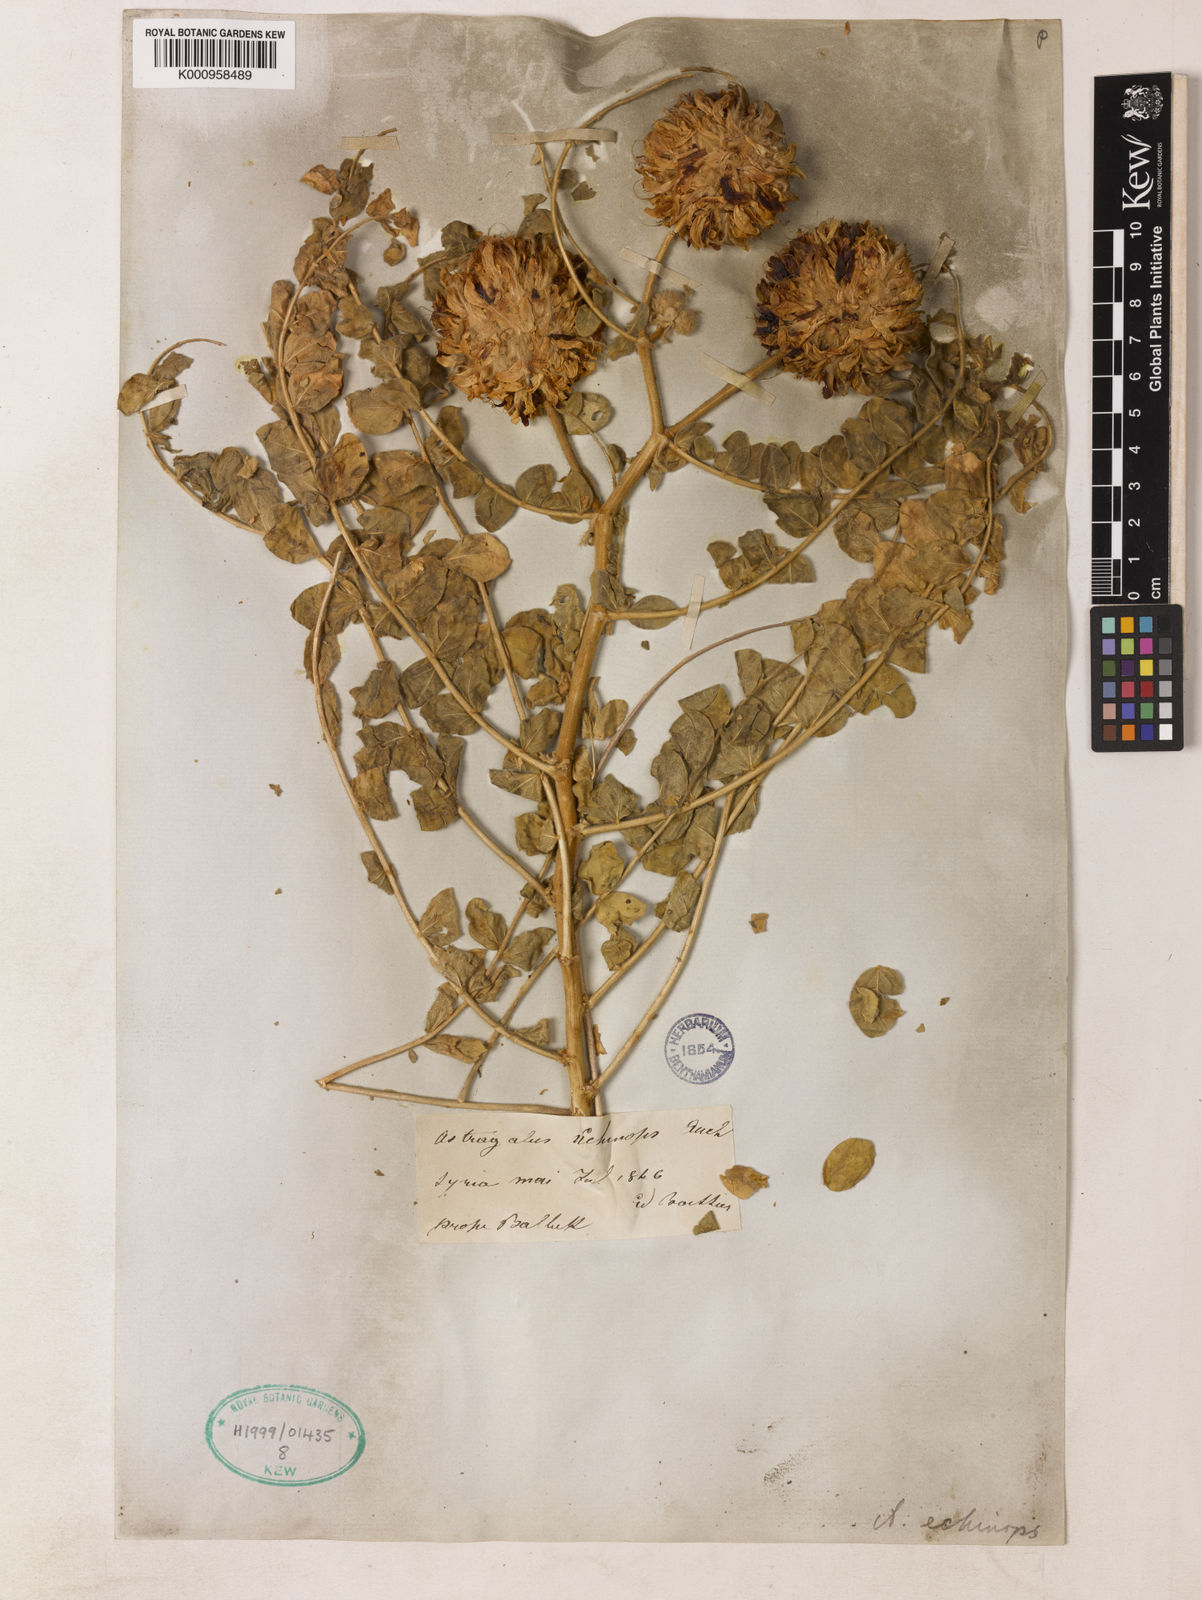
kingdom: Plantae
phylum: Tracheophyta
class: Magnoliopsida
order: Fabales
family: Fabaceae
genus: Astragalus
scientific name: Astragalus echinops
